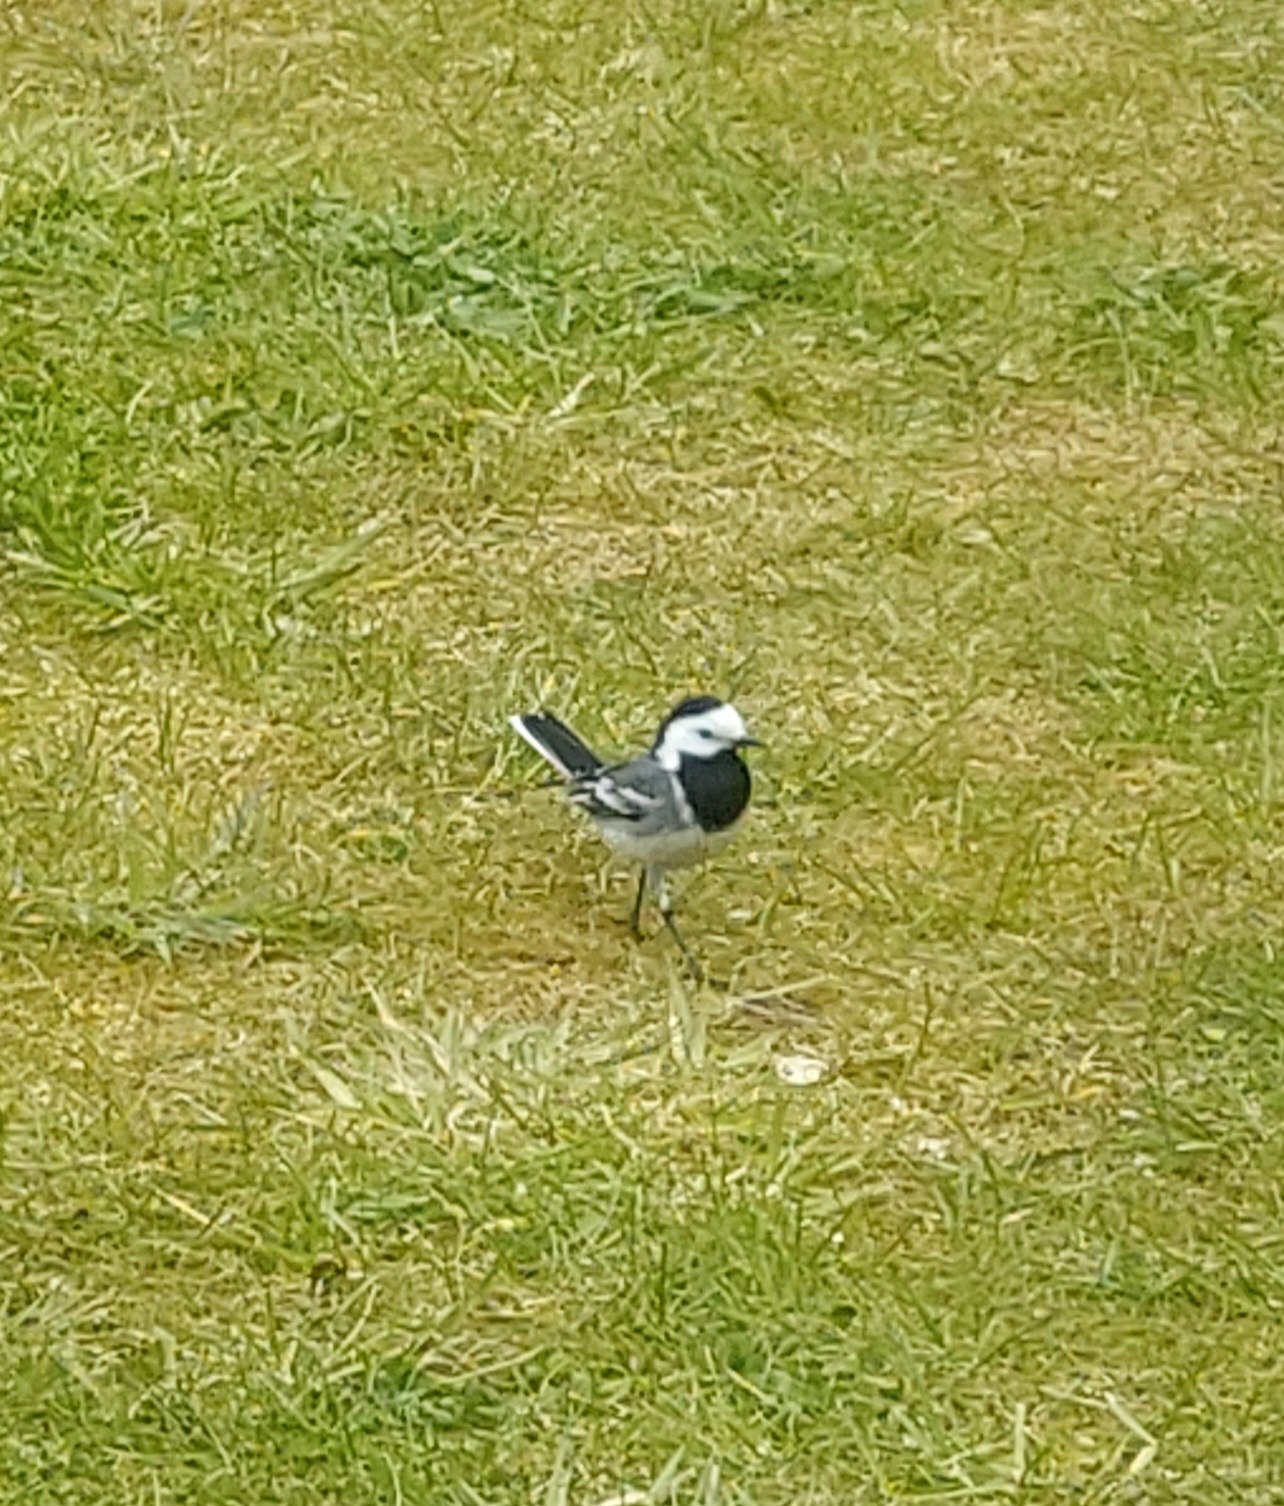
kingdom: Animalia
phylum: Chordata
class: Aves
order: Passeriformes
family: Motacillidae
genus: Motacilla
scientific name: Motacilla alba
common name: Hvid vipstjert
